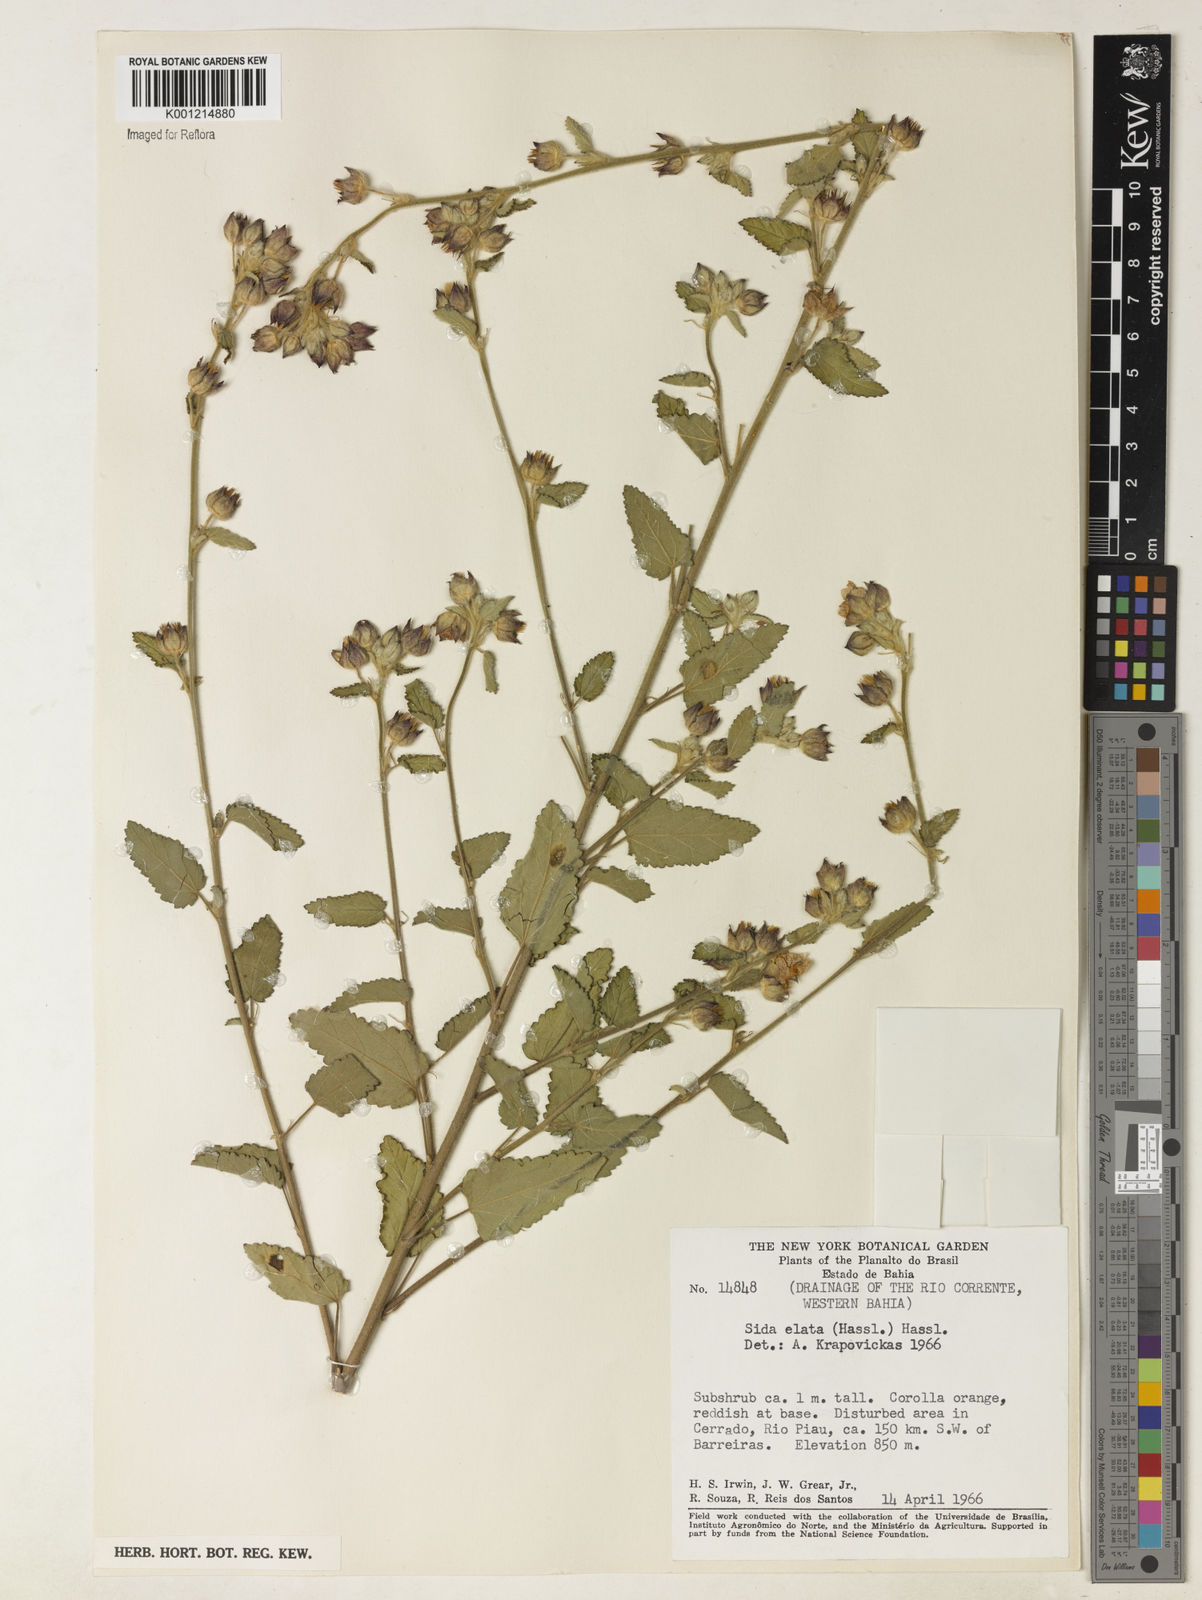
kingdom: Plantae
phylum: Tracheophyta
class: Magnoliopsida
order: Malvales
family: Malvaceae
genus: Sida
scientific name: Sida cerradoensis
